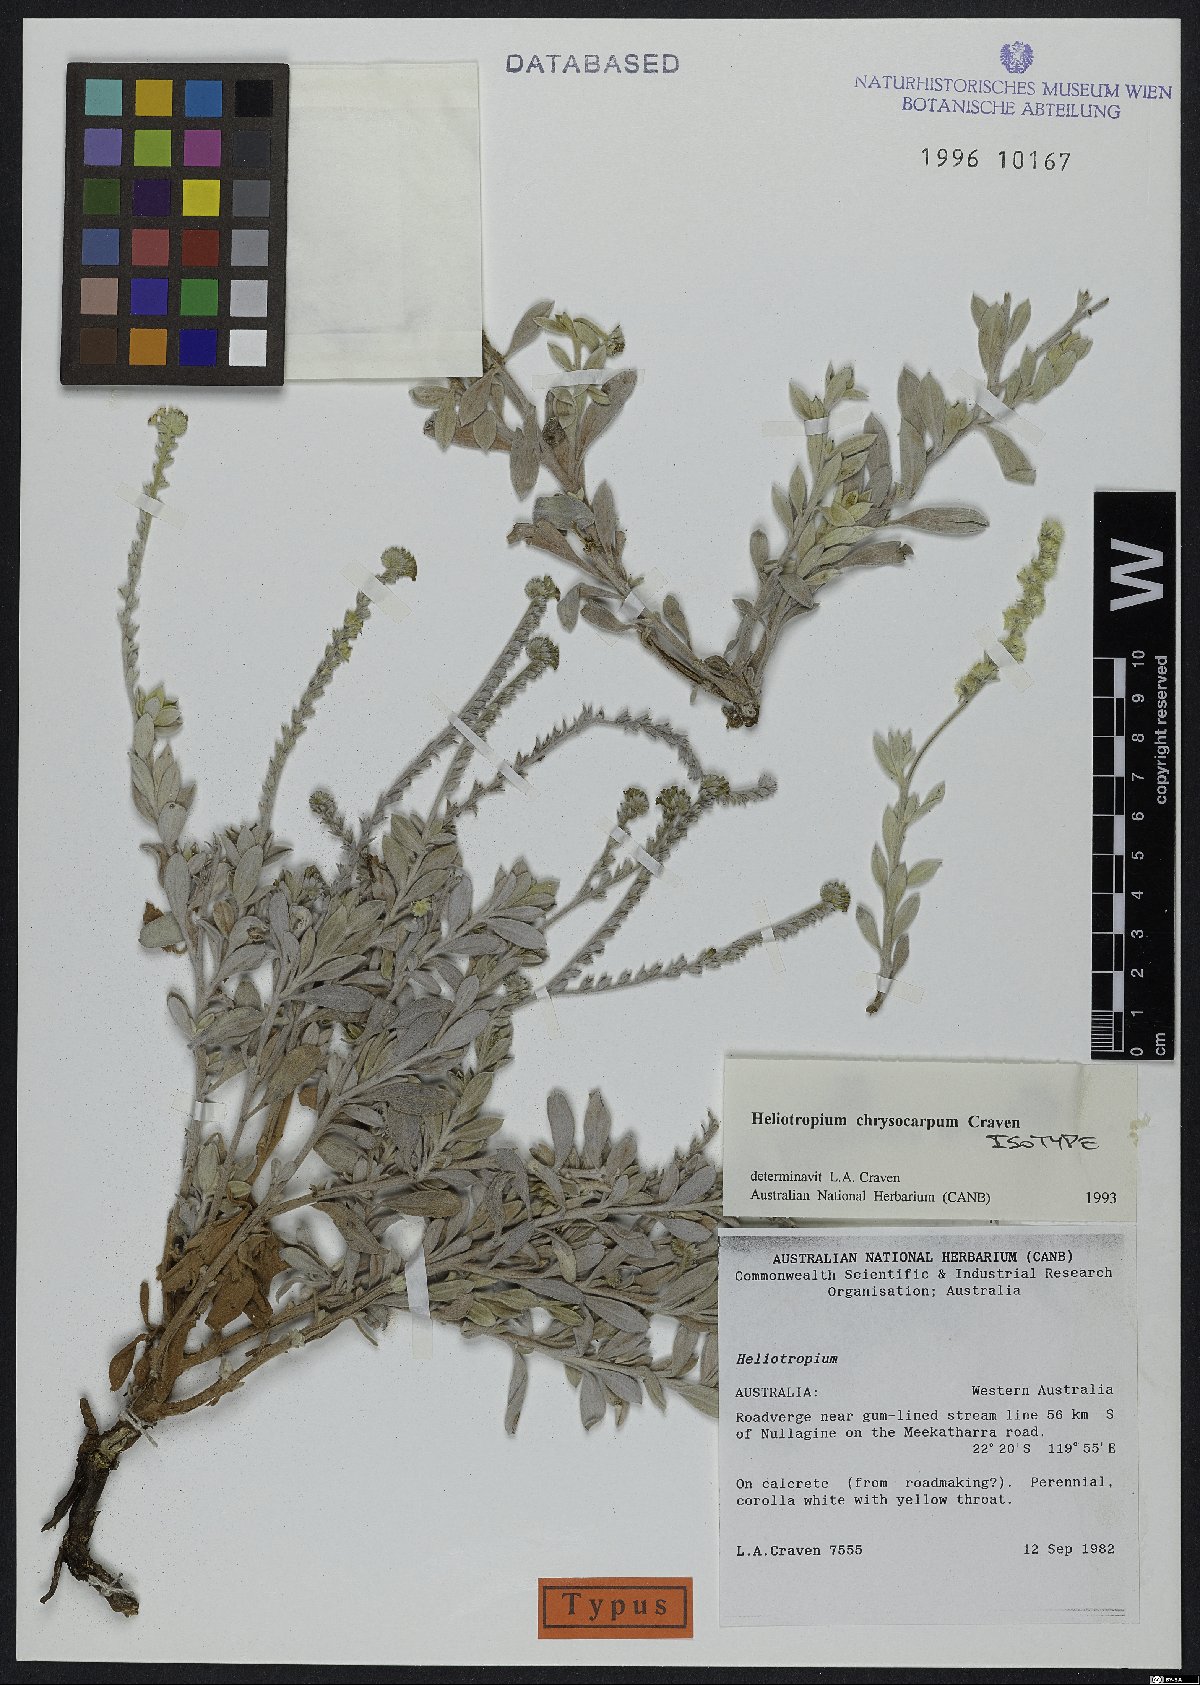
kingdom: Plantae
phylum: Tracheophyta
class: Magnoliopsida
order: Boraginales
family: Heliotropiaceae
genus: Euploca
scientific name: Euploca chrysocarpa
